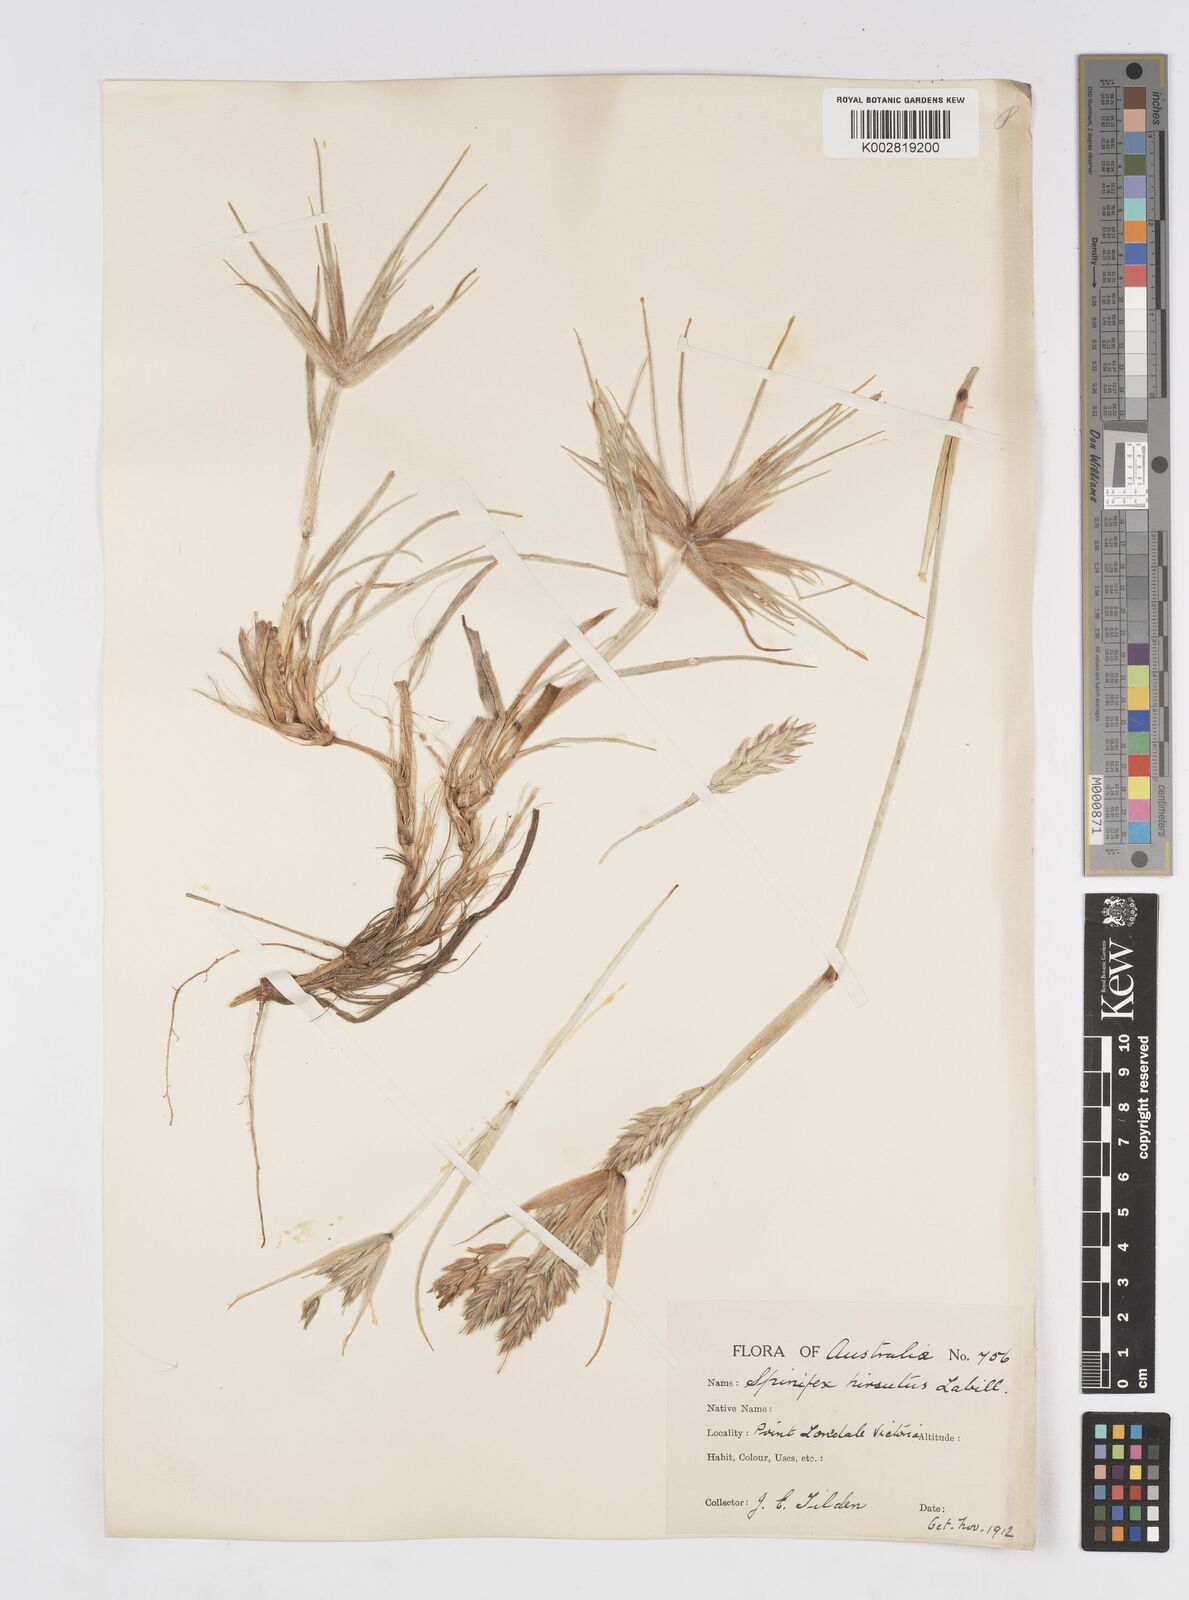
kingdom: Plantae
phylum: Tracheophyta
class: Liliopsida
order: Poales
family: Poaceae
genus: Spinifex
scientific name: Spinifex sericeus
